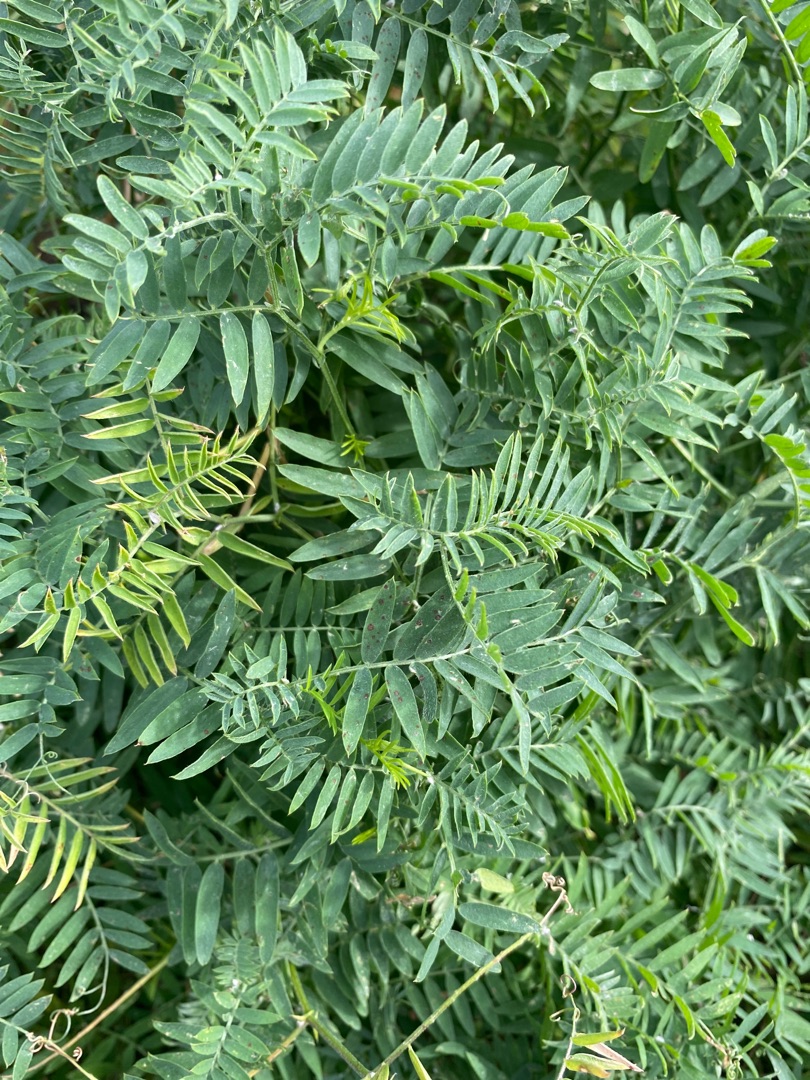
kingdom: Plantae
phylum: Tracheophyta
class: Magnoliopsida
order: Fabales
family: Fabaceae
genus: Vicia
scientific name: Vicia cracca
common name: Muse-vikke
